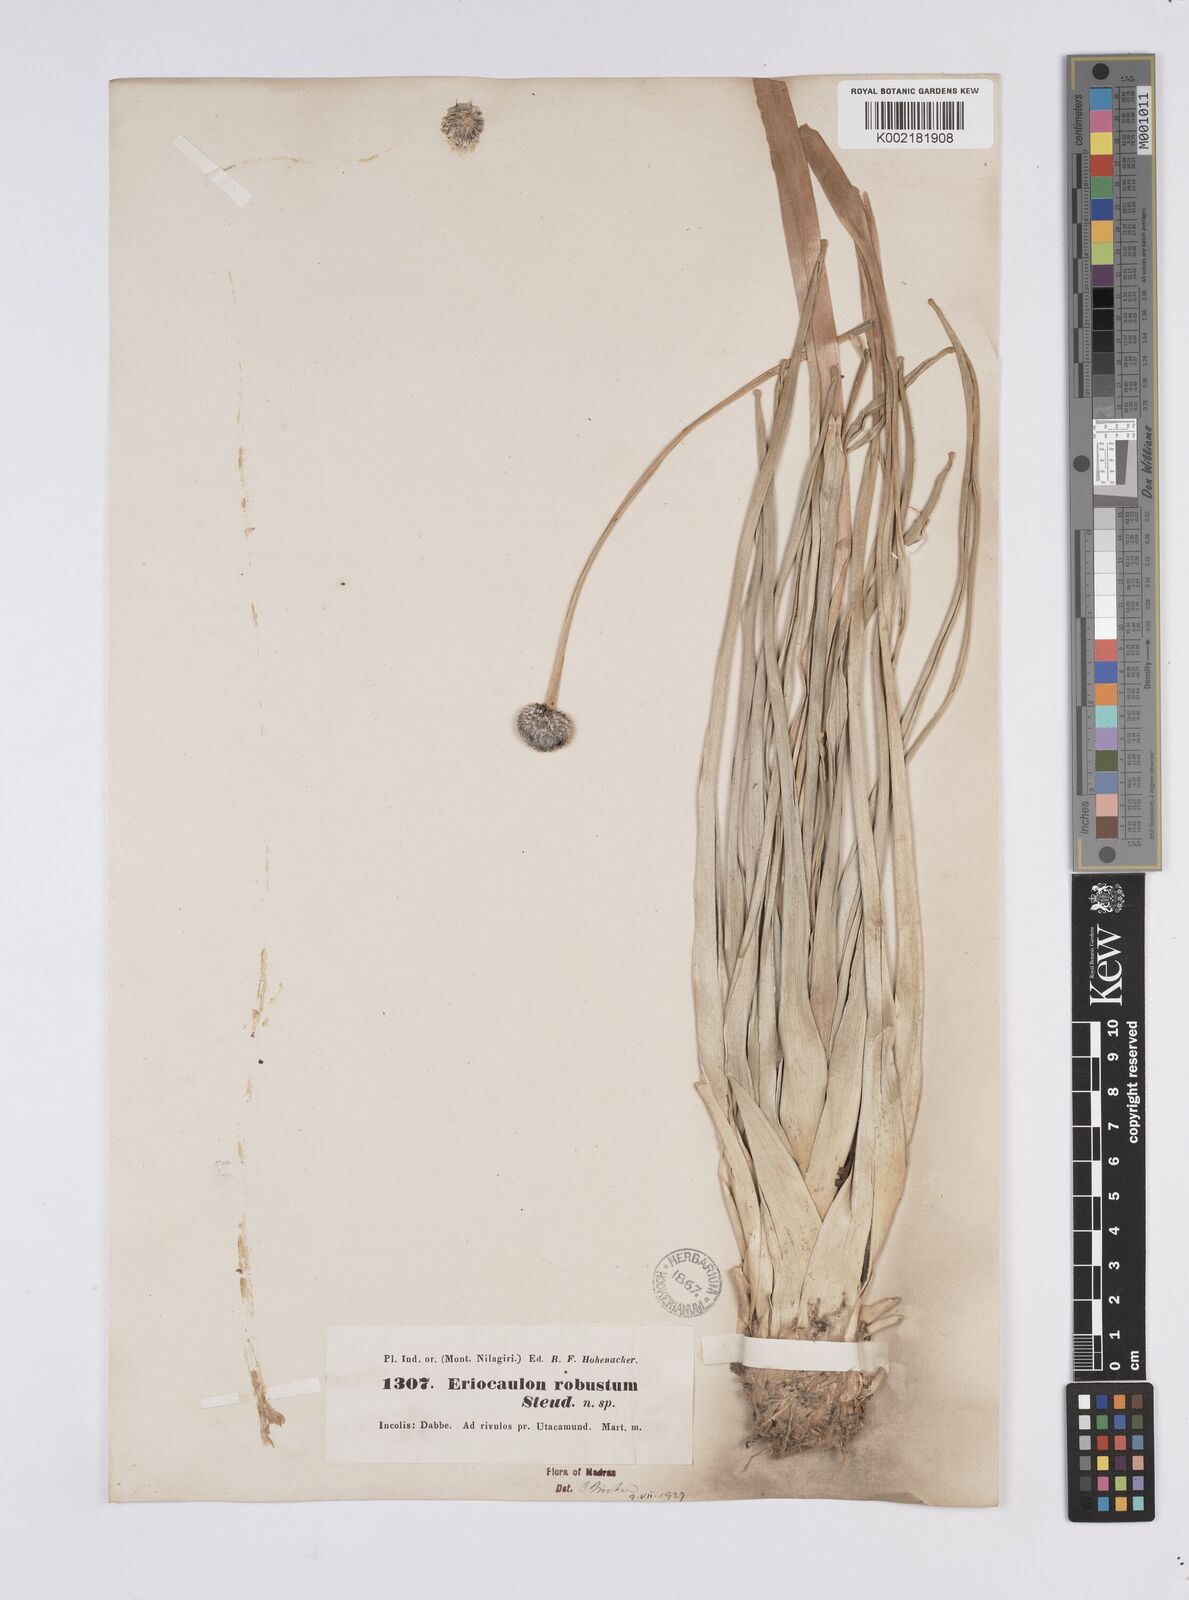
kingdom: Plantae
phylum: Tracheophyta
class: Liliopsida
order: Poales
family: Eriocaulaceae
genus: Eriocaulon
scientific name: Eriocaulon robustum
